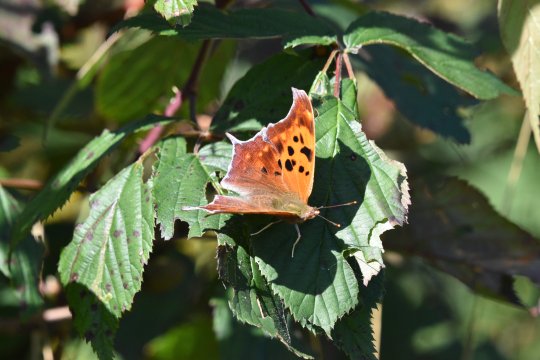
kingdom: Animalia
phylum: Arthropoda
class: Insecta
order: Lepidoptera
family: Nymphalidae
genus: Polygonia
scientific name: Polygonia interrogationis
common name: Question Mark
